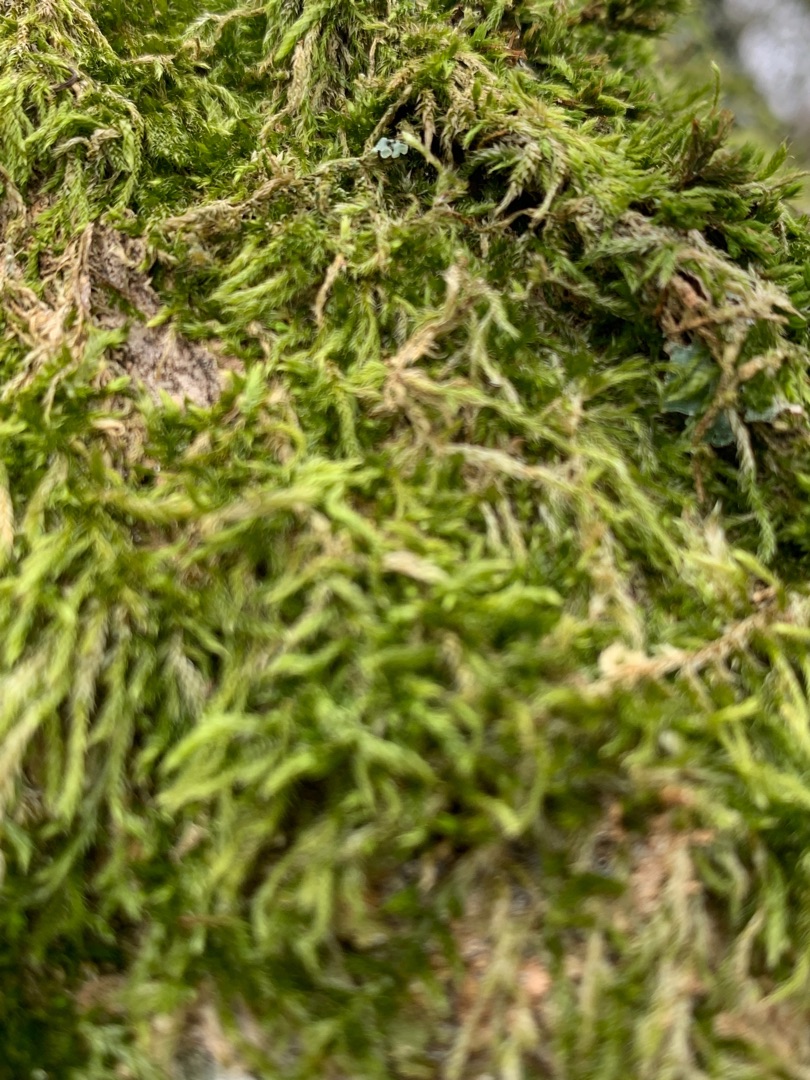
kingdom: Plantae
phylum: Bryophyta
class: Bryopsida
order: Hypnales
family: Hypnaceae
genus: Hypnum
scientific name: Hypnum
